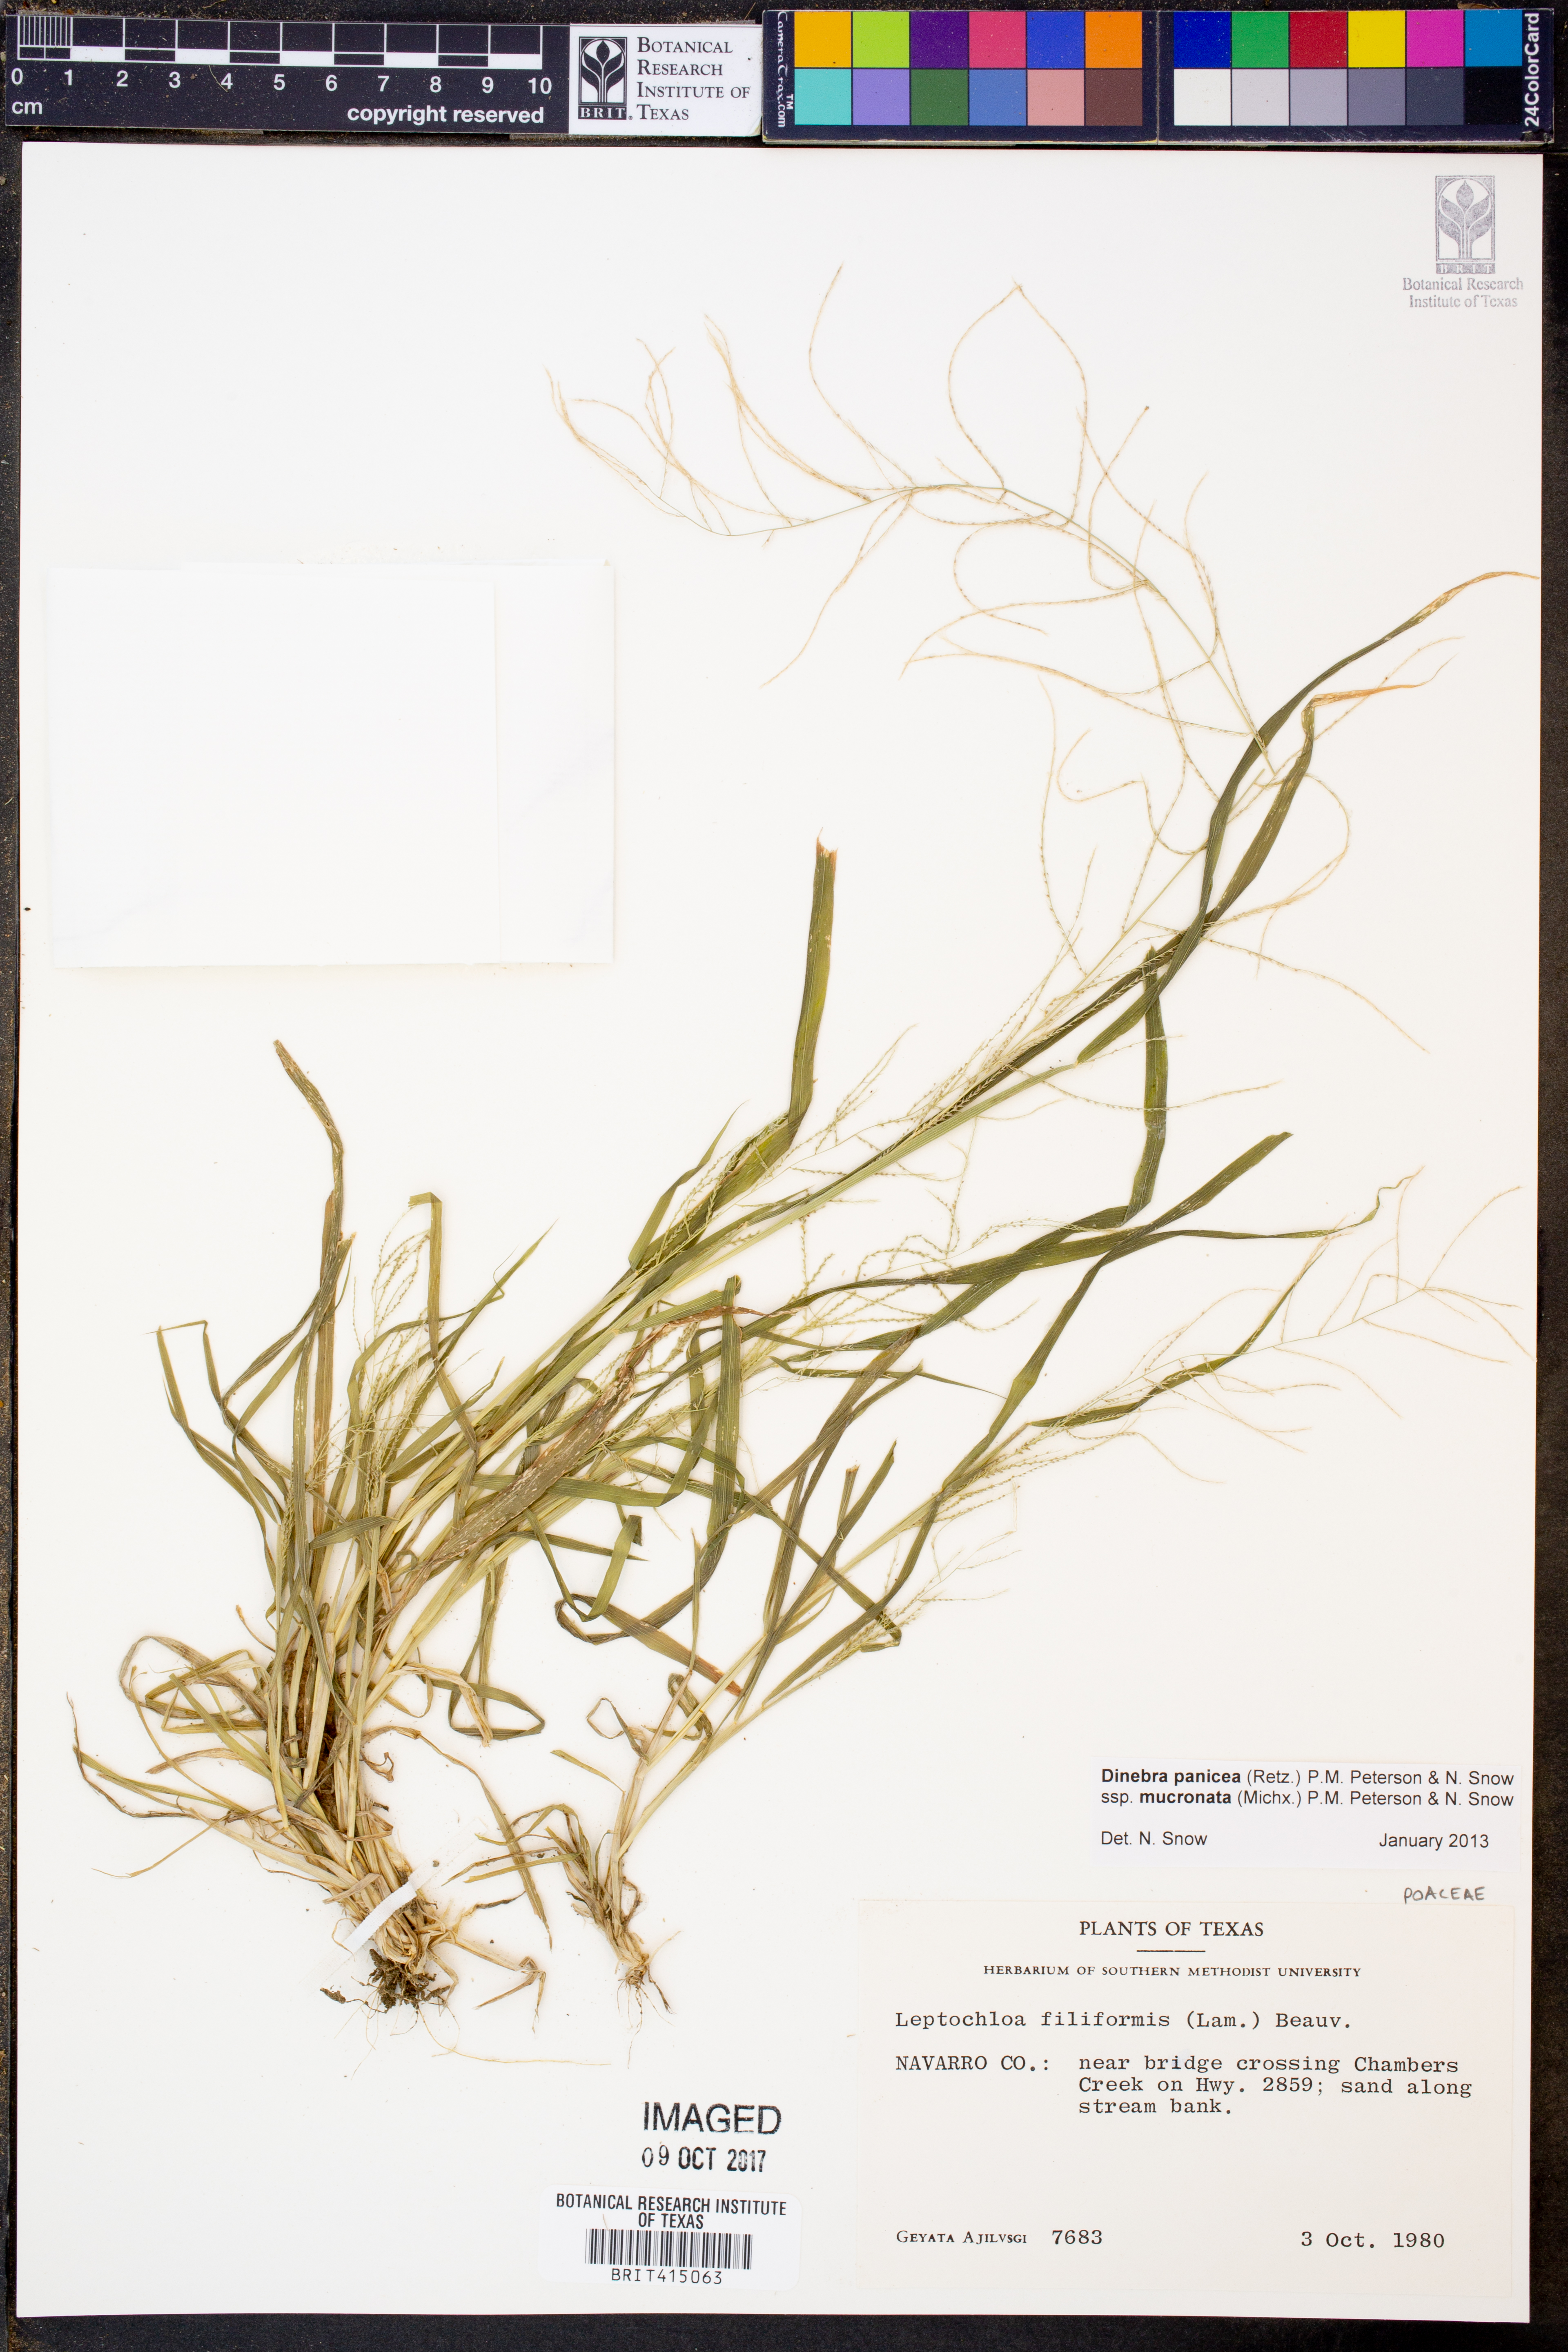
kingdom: Plantae
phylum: Tracheophyta
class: Liliopsida
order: Poales
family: Poaceae
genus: Leptochloa
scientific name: Leptochloa mucronata
